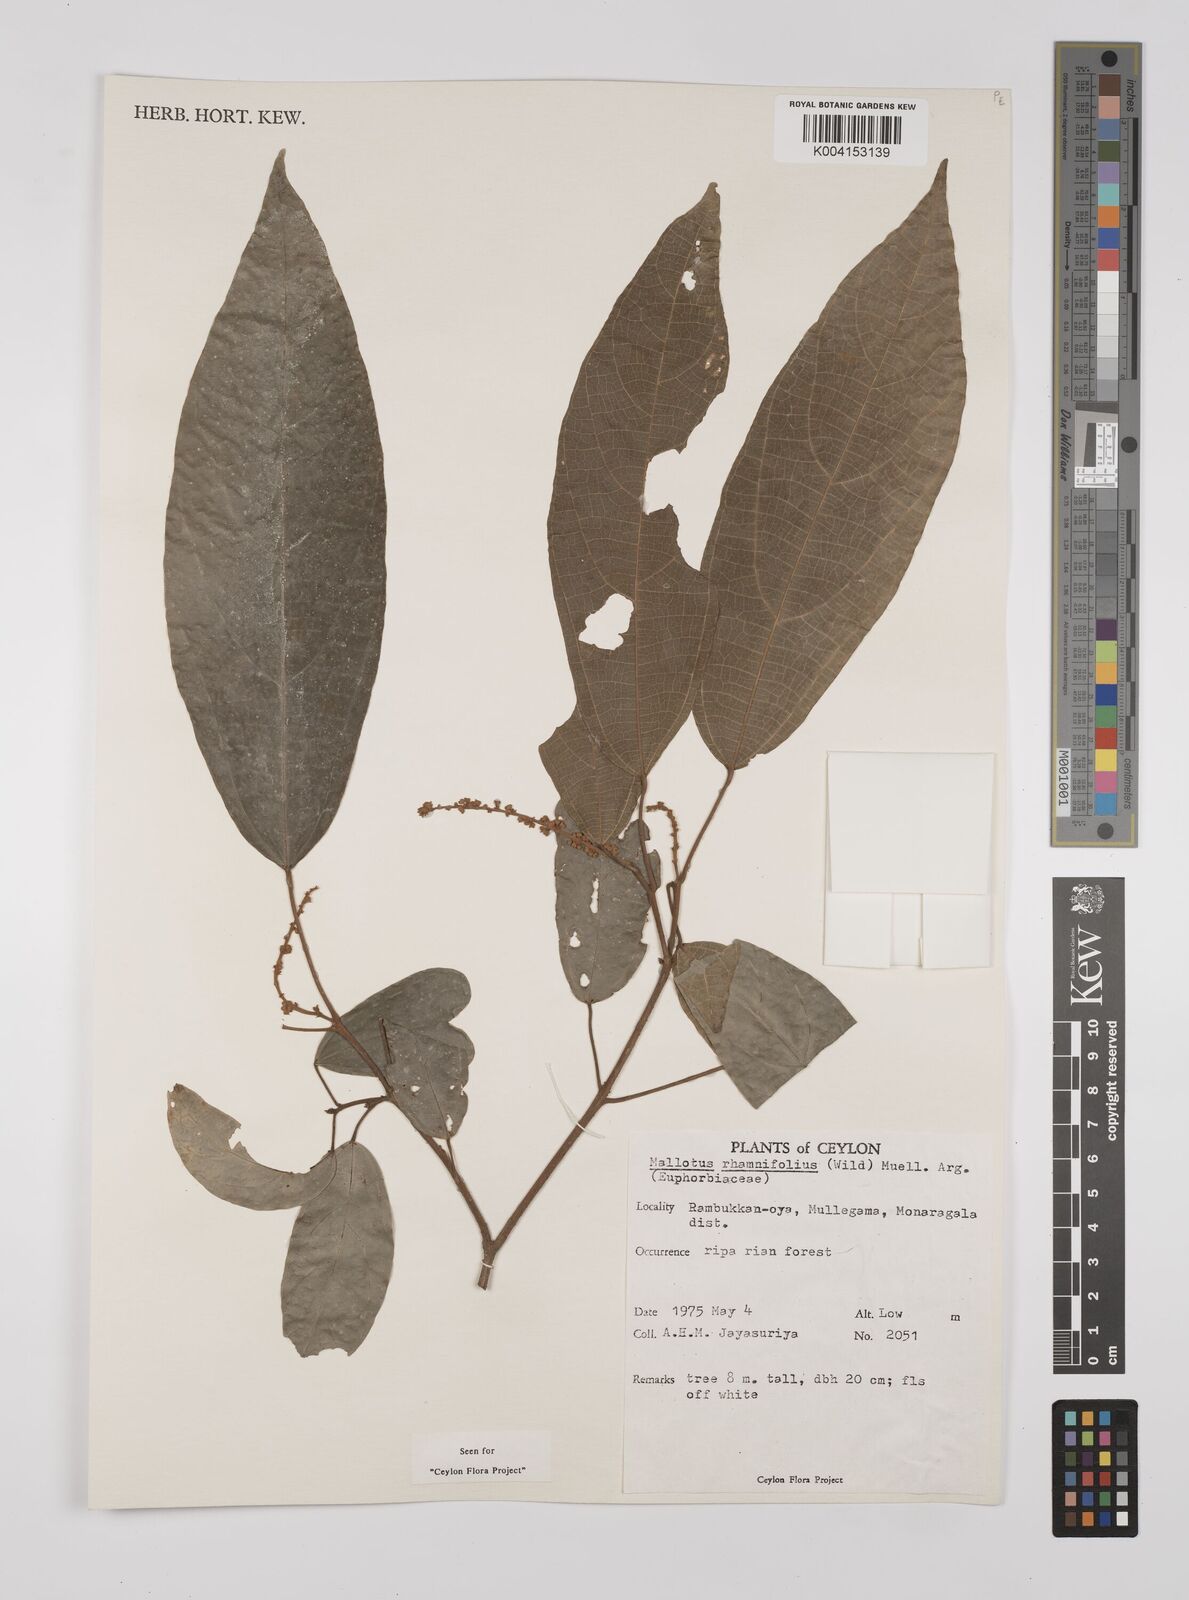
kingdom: Plantae
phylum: Tracheophyta
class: Magnoliopsida
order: Malpighiales
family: Euphorbiaceae
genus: Mallotus
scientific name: Mallotus rhamnifolius
